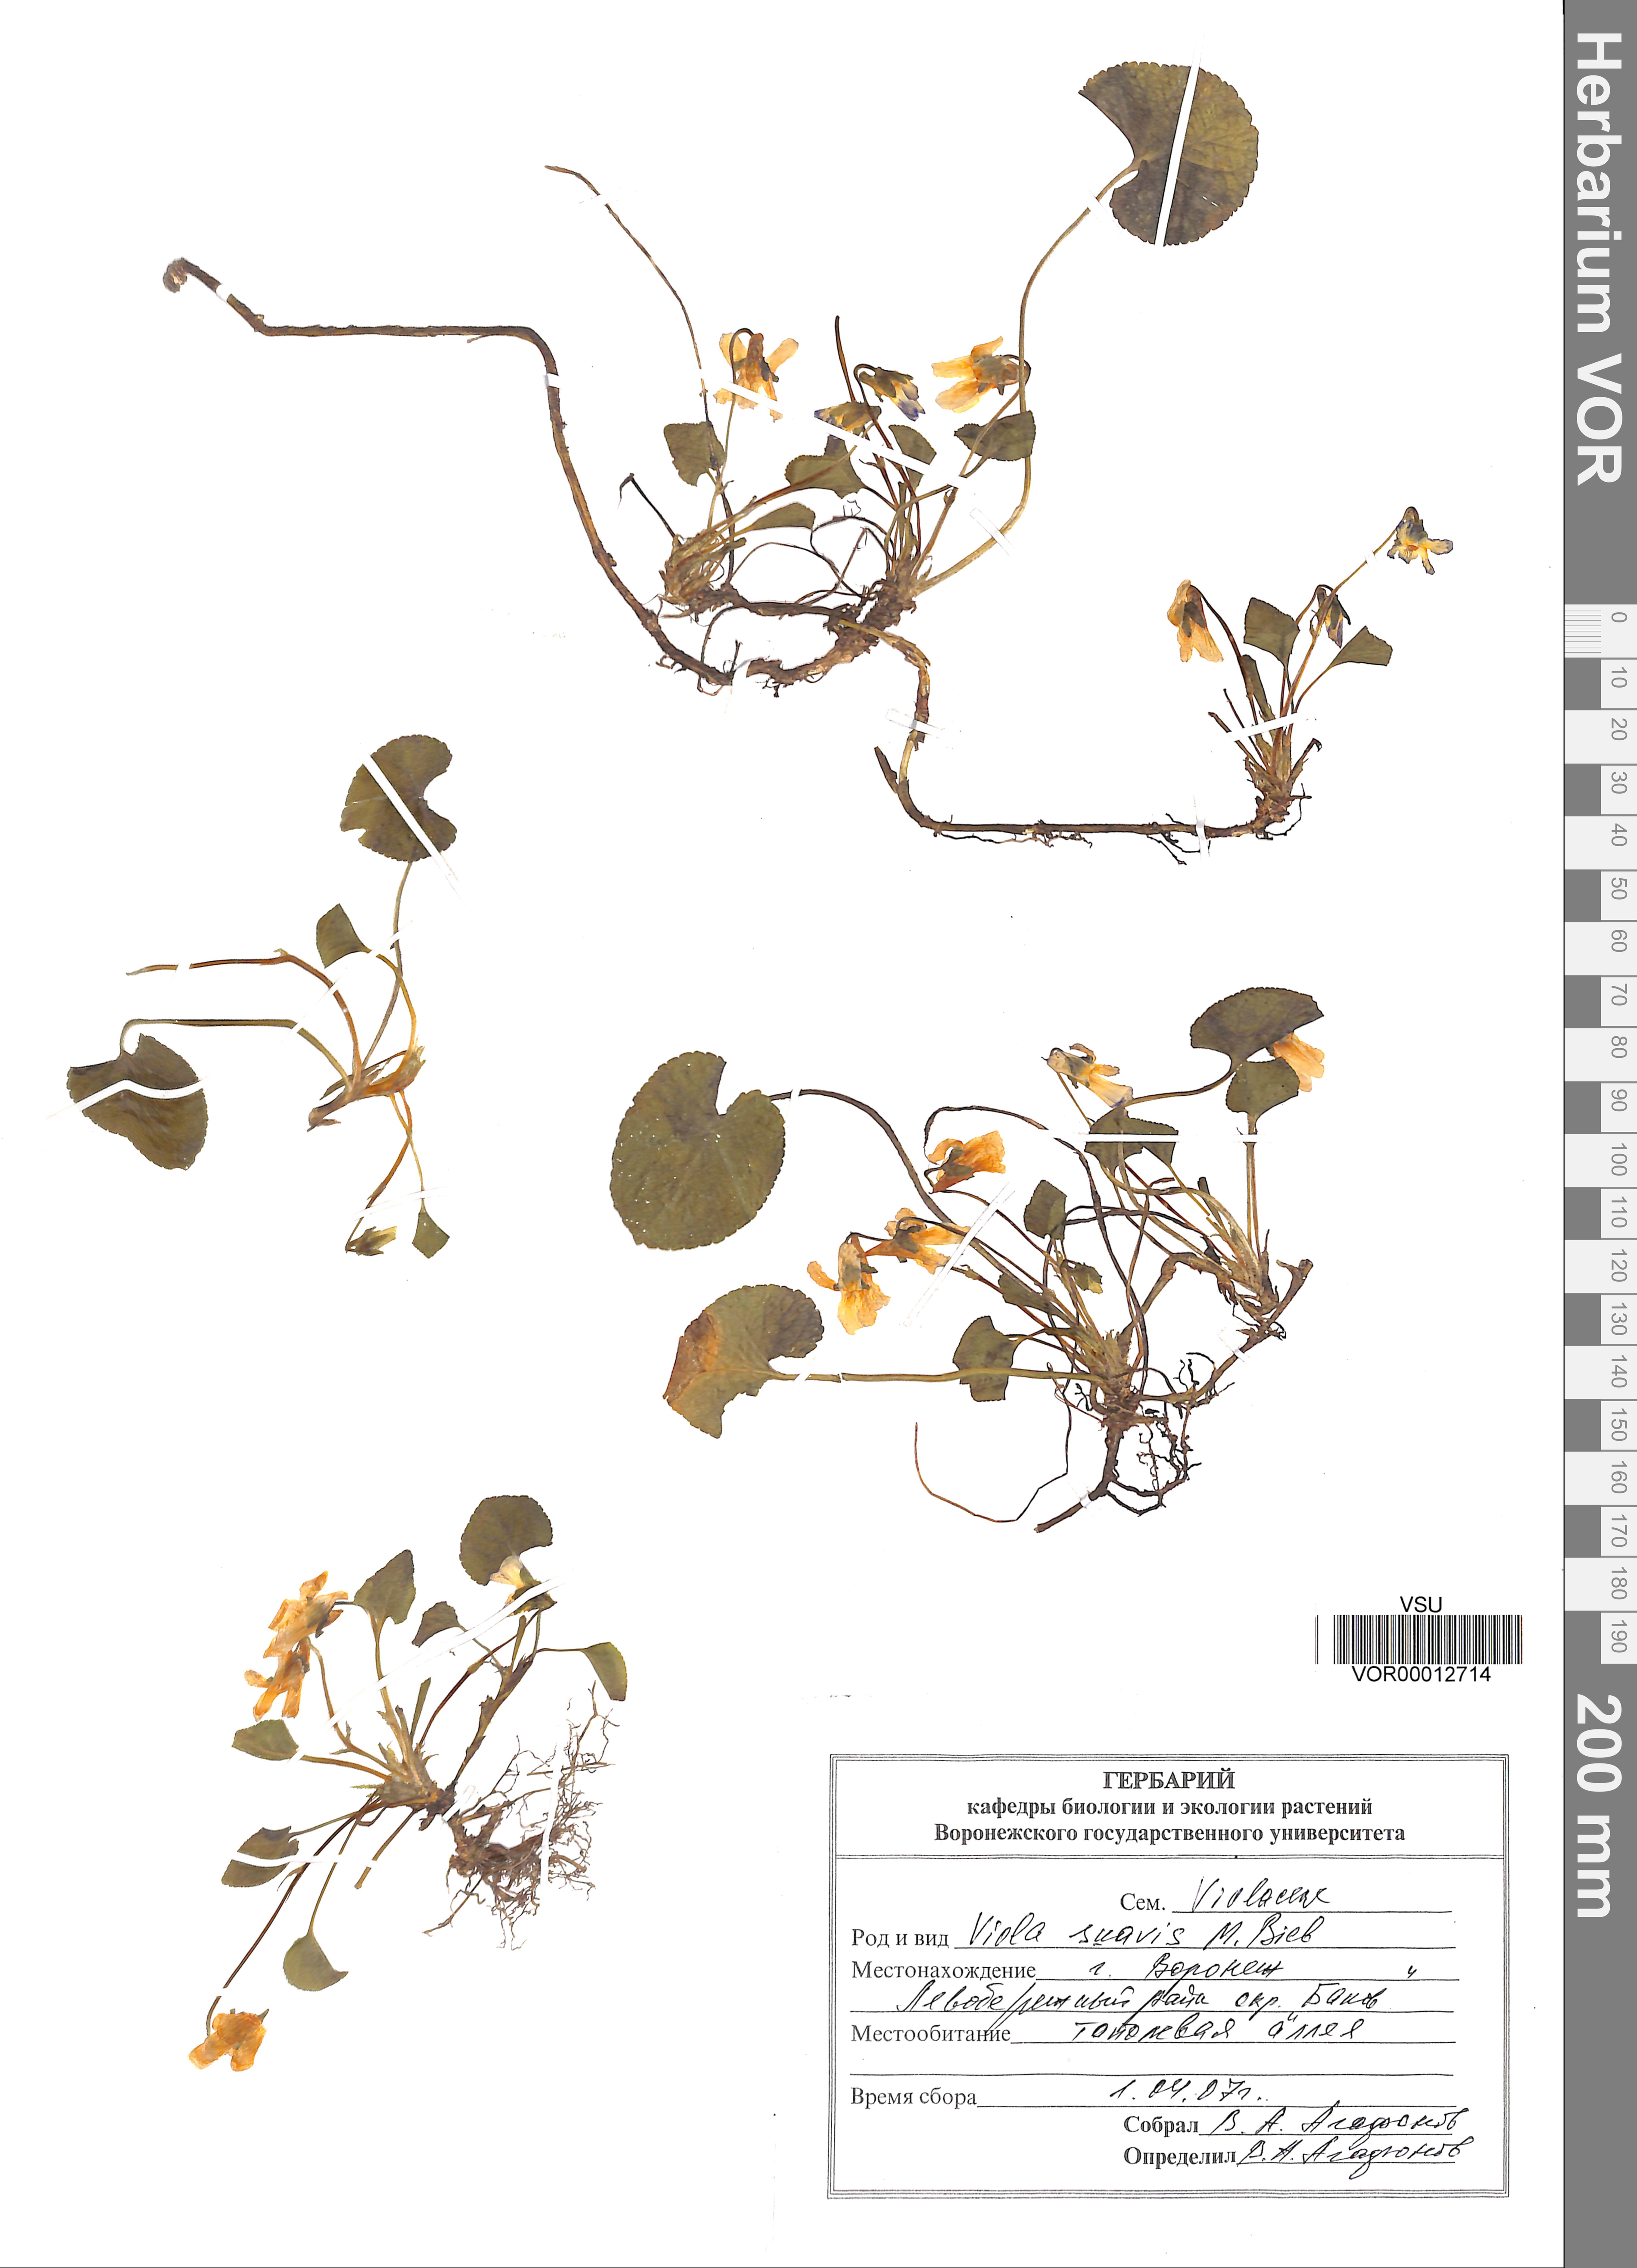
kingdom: Plantae
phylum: Tracheophyta
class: Magnoliopsida
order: Malpighiales
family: Violaceae
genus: Viola
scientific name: Viola suavis
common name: Russian violet
